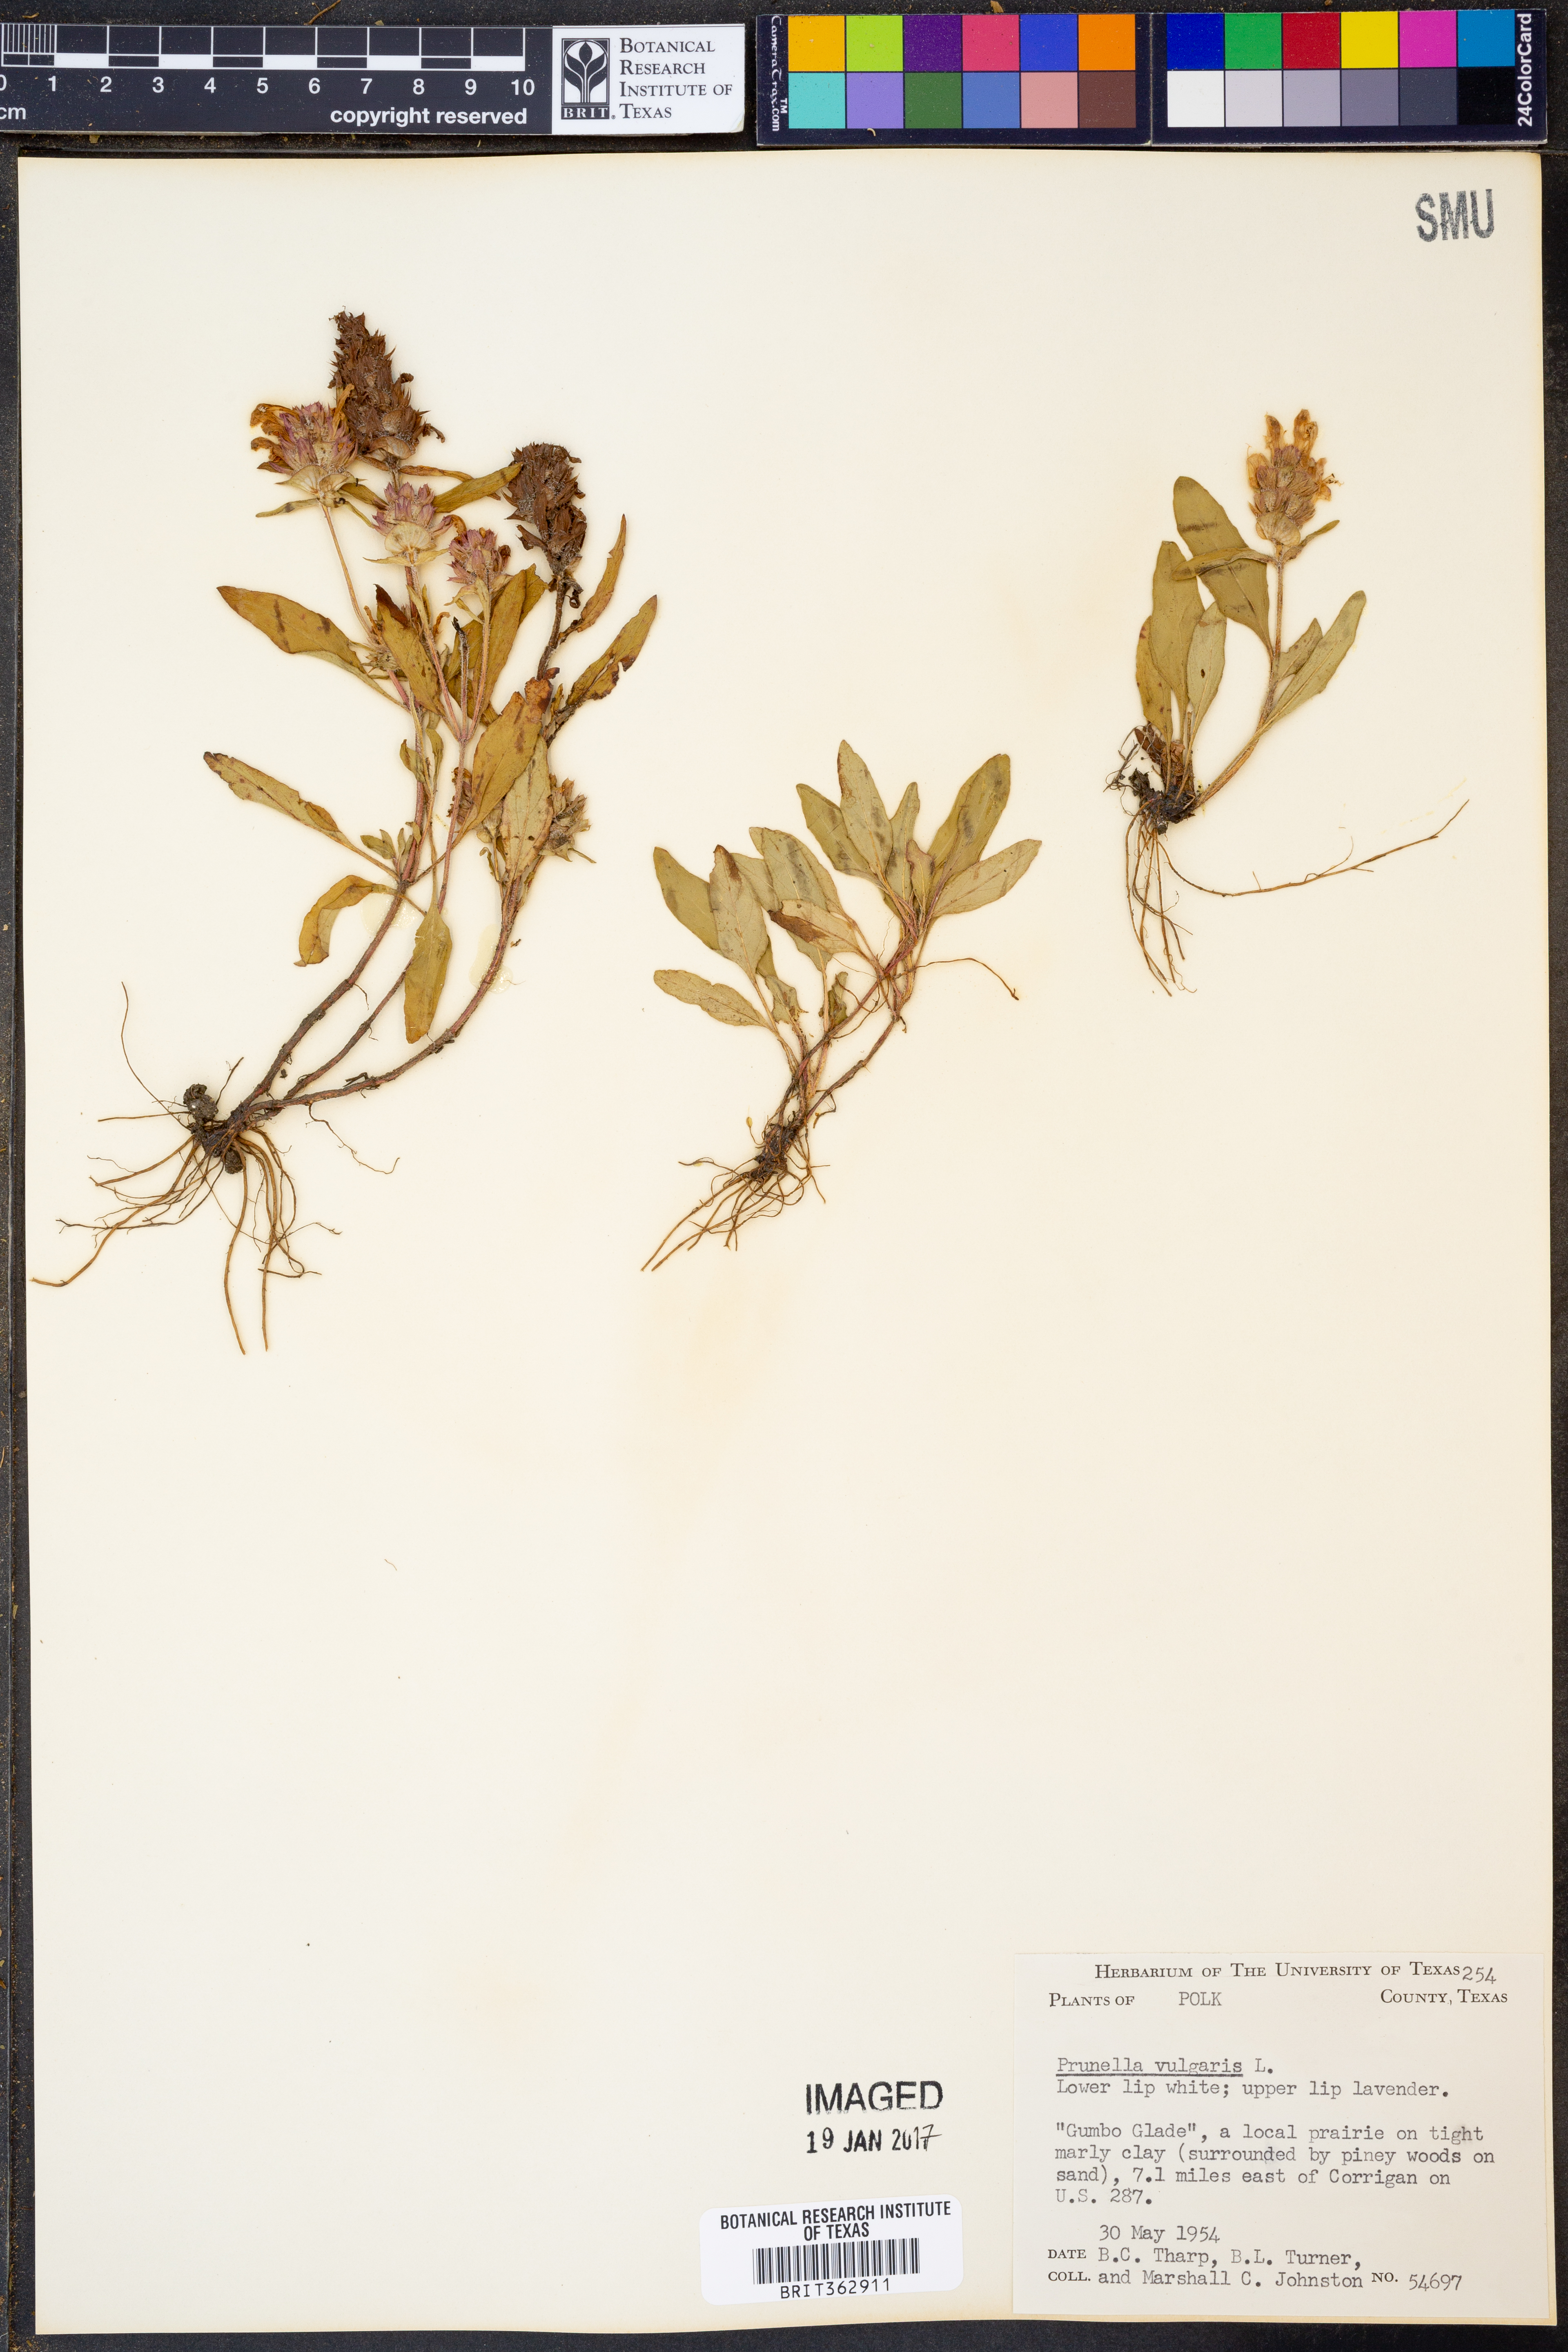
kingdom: Plantae
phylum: Tracheophyta
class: Magnoliopsida
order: Lamiales
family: Lamiaceae
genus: Prunella
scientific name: Prunella vulgaris
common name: Heal-all
